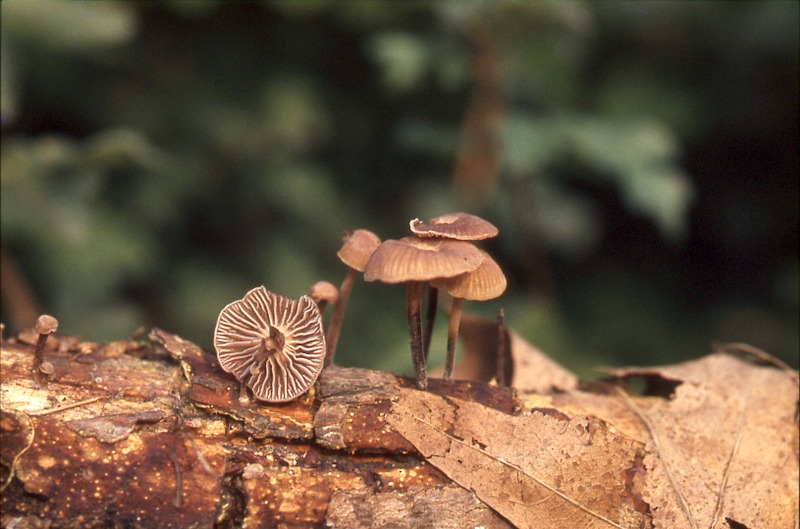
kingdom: Fungi
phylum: Basidiomycota
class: Agaricomycetes
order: Agaricales
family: Omphalotaceae
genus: Gymnopus
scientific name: Gymnopus foetidus
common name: Foetid parachute
